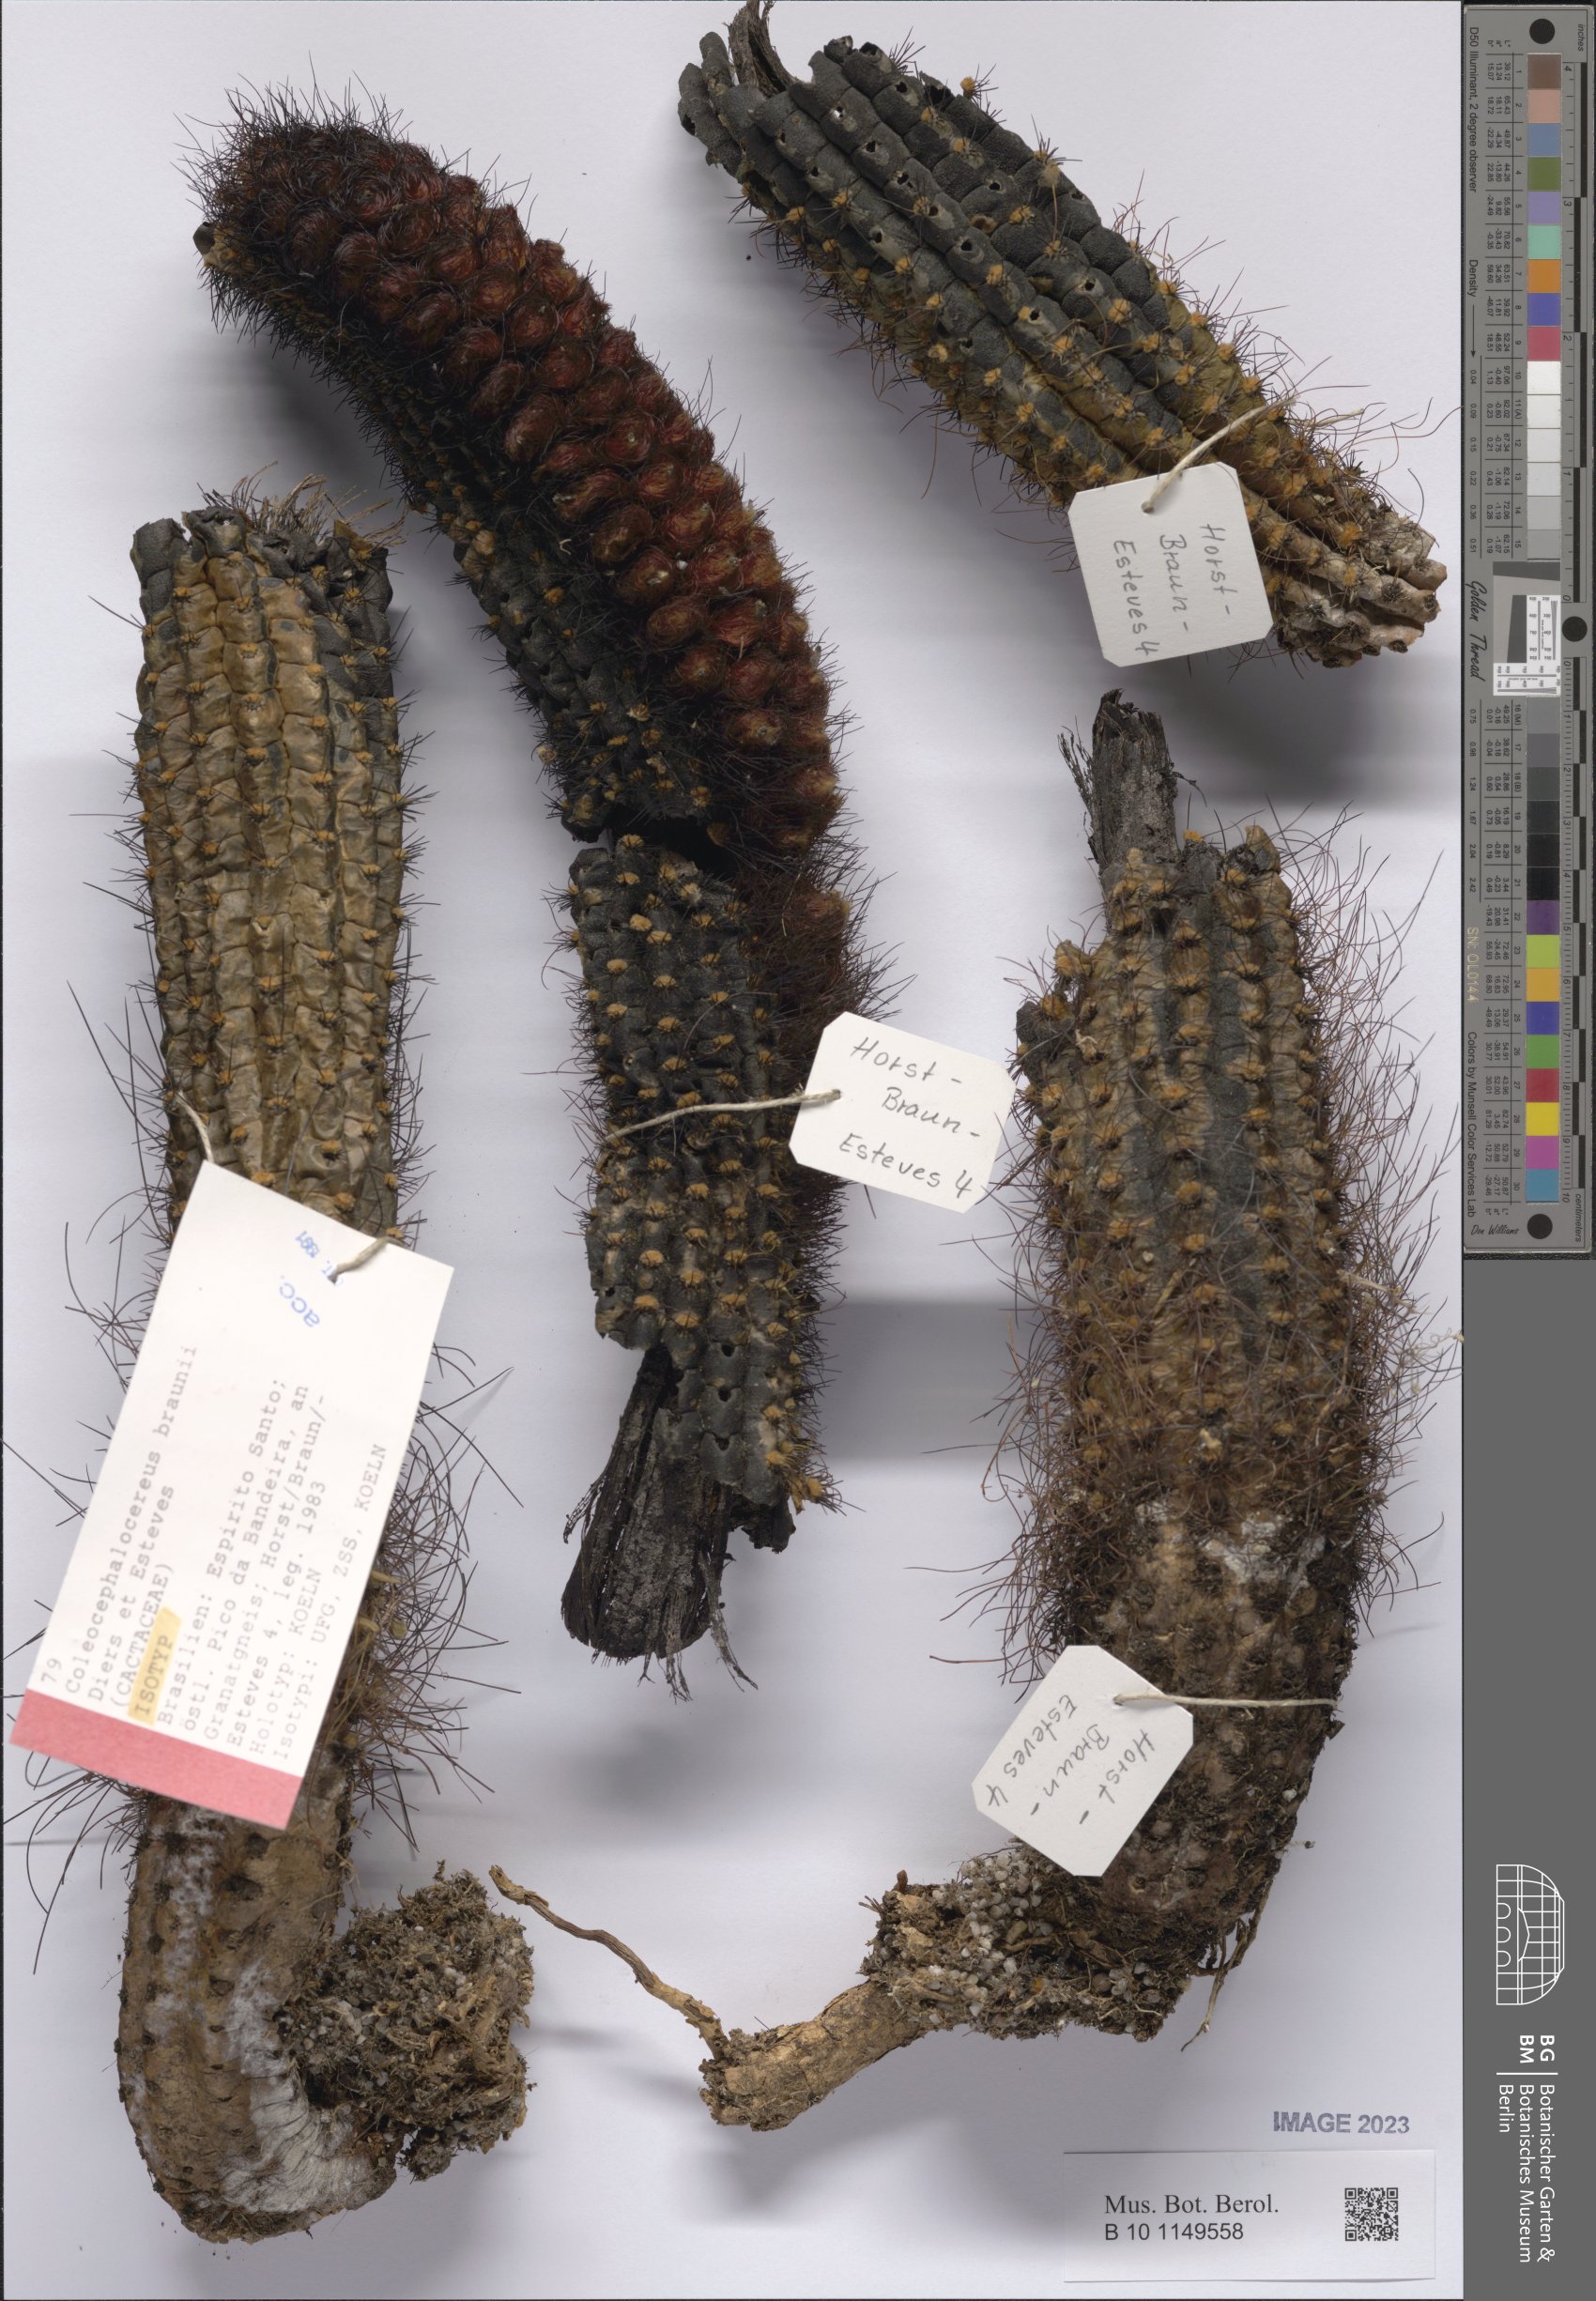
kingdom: Plantae
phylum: Tracheophyta
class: Magnoliopsida
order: Caryophyllales
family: Cactaceae
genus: Coleocephalocereus
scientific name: Coleocephalocereus braunii
